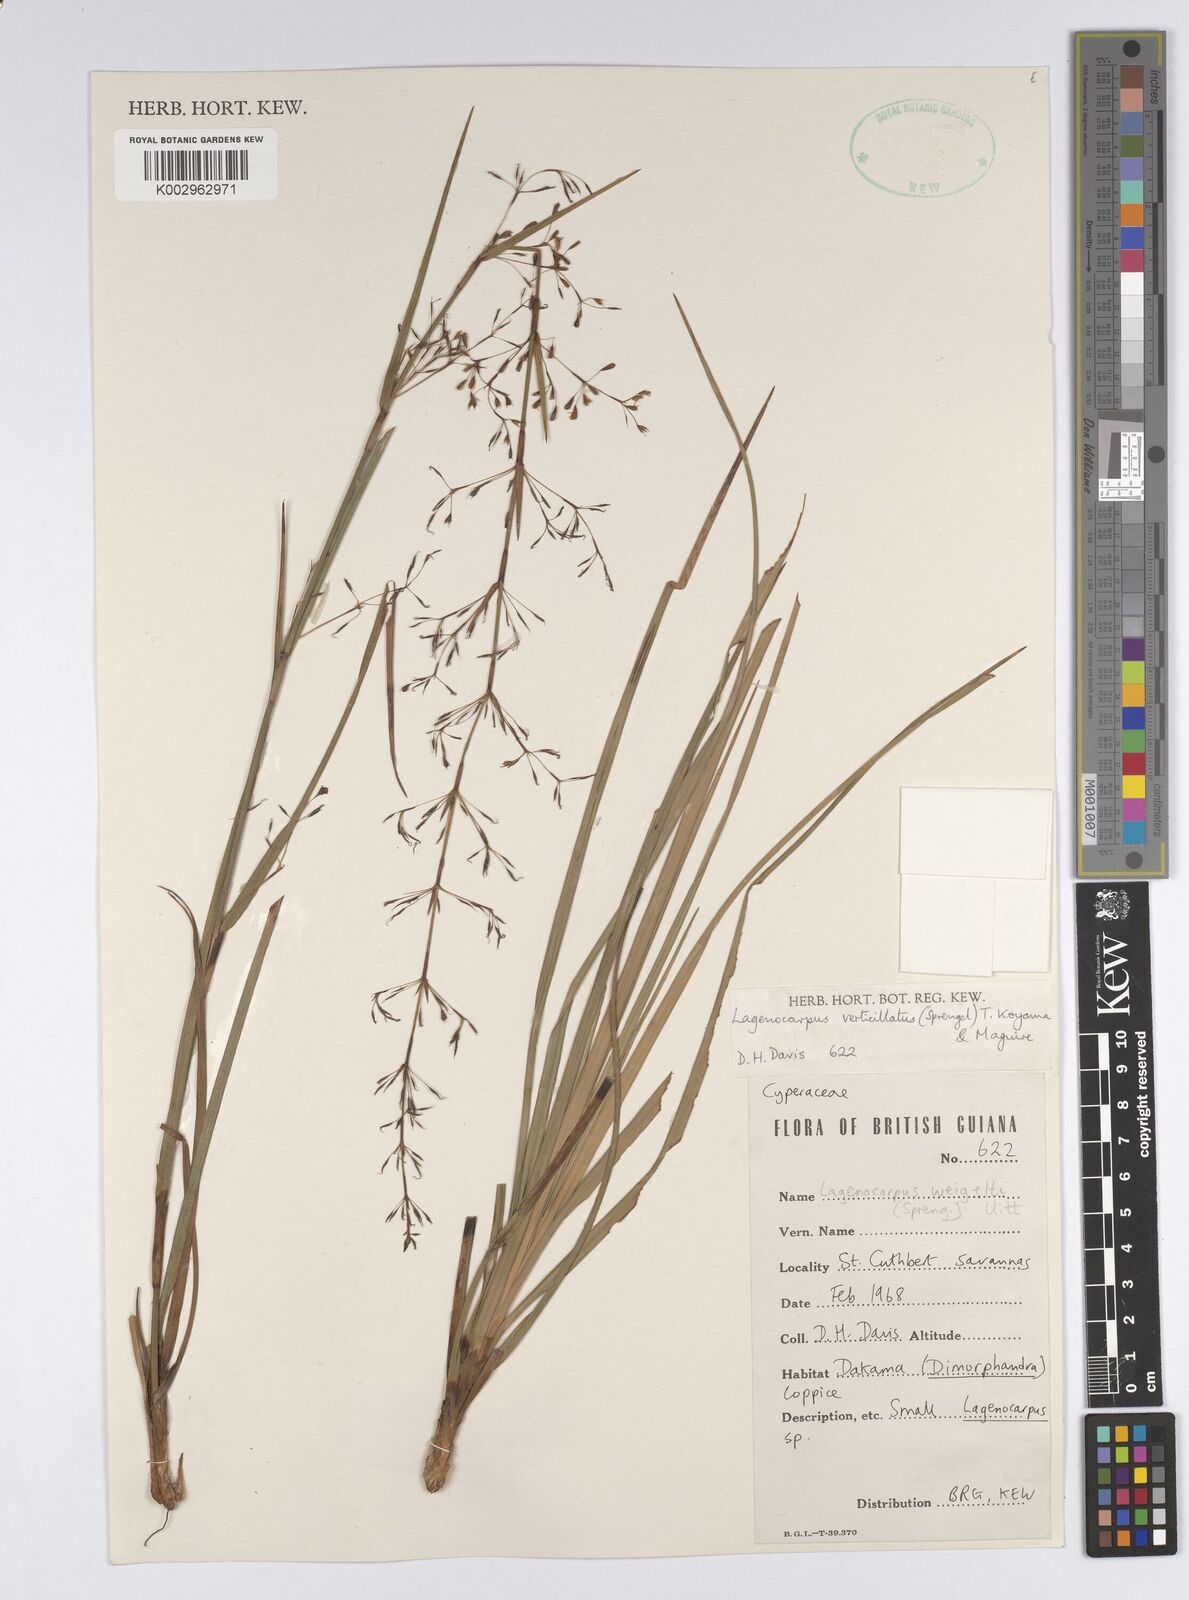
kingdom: Plantae
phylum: Tracheophyta
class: Liliopsida
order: Poales
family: Cyperaceae
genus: Cryptangium
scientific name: Cryptangium verticillatum
